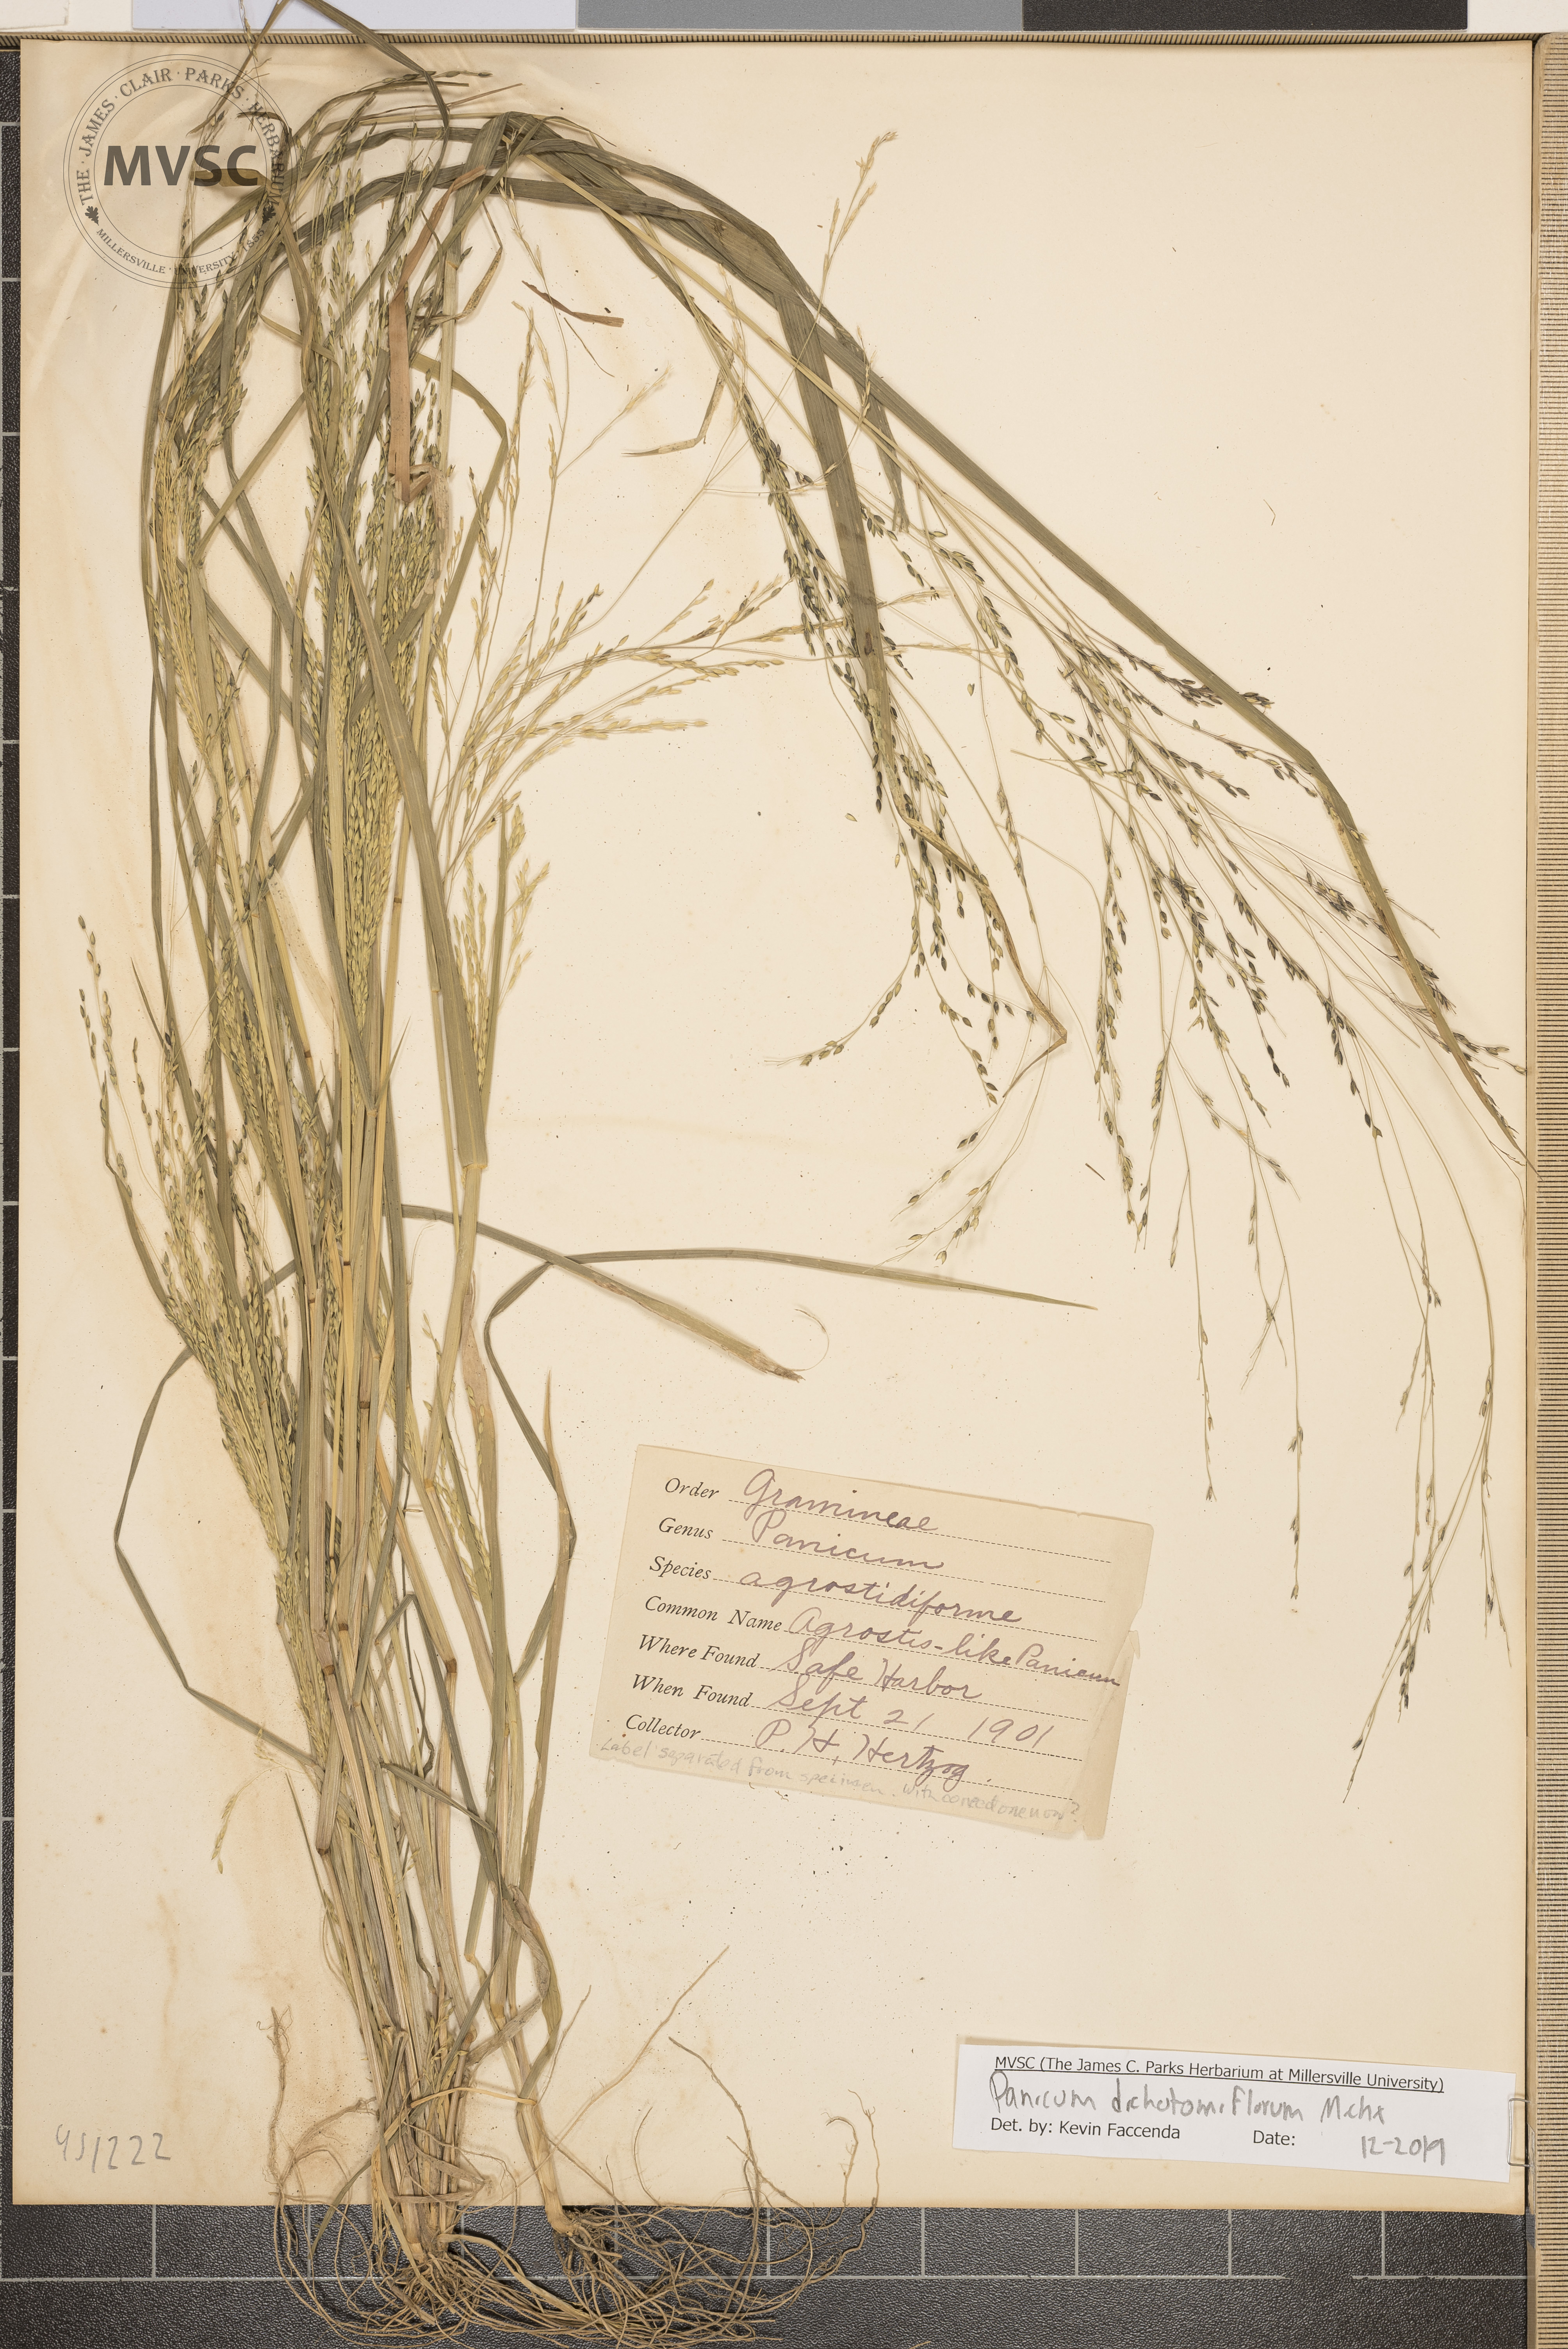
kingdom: Plantae
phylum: Tracheophyta
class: Liliopsida
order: Poales
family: Poaceae
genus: Panicum
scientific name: Panicum dichotomiflorum
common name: Autumn millet
